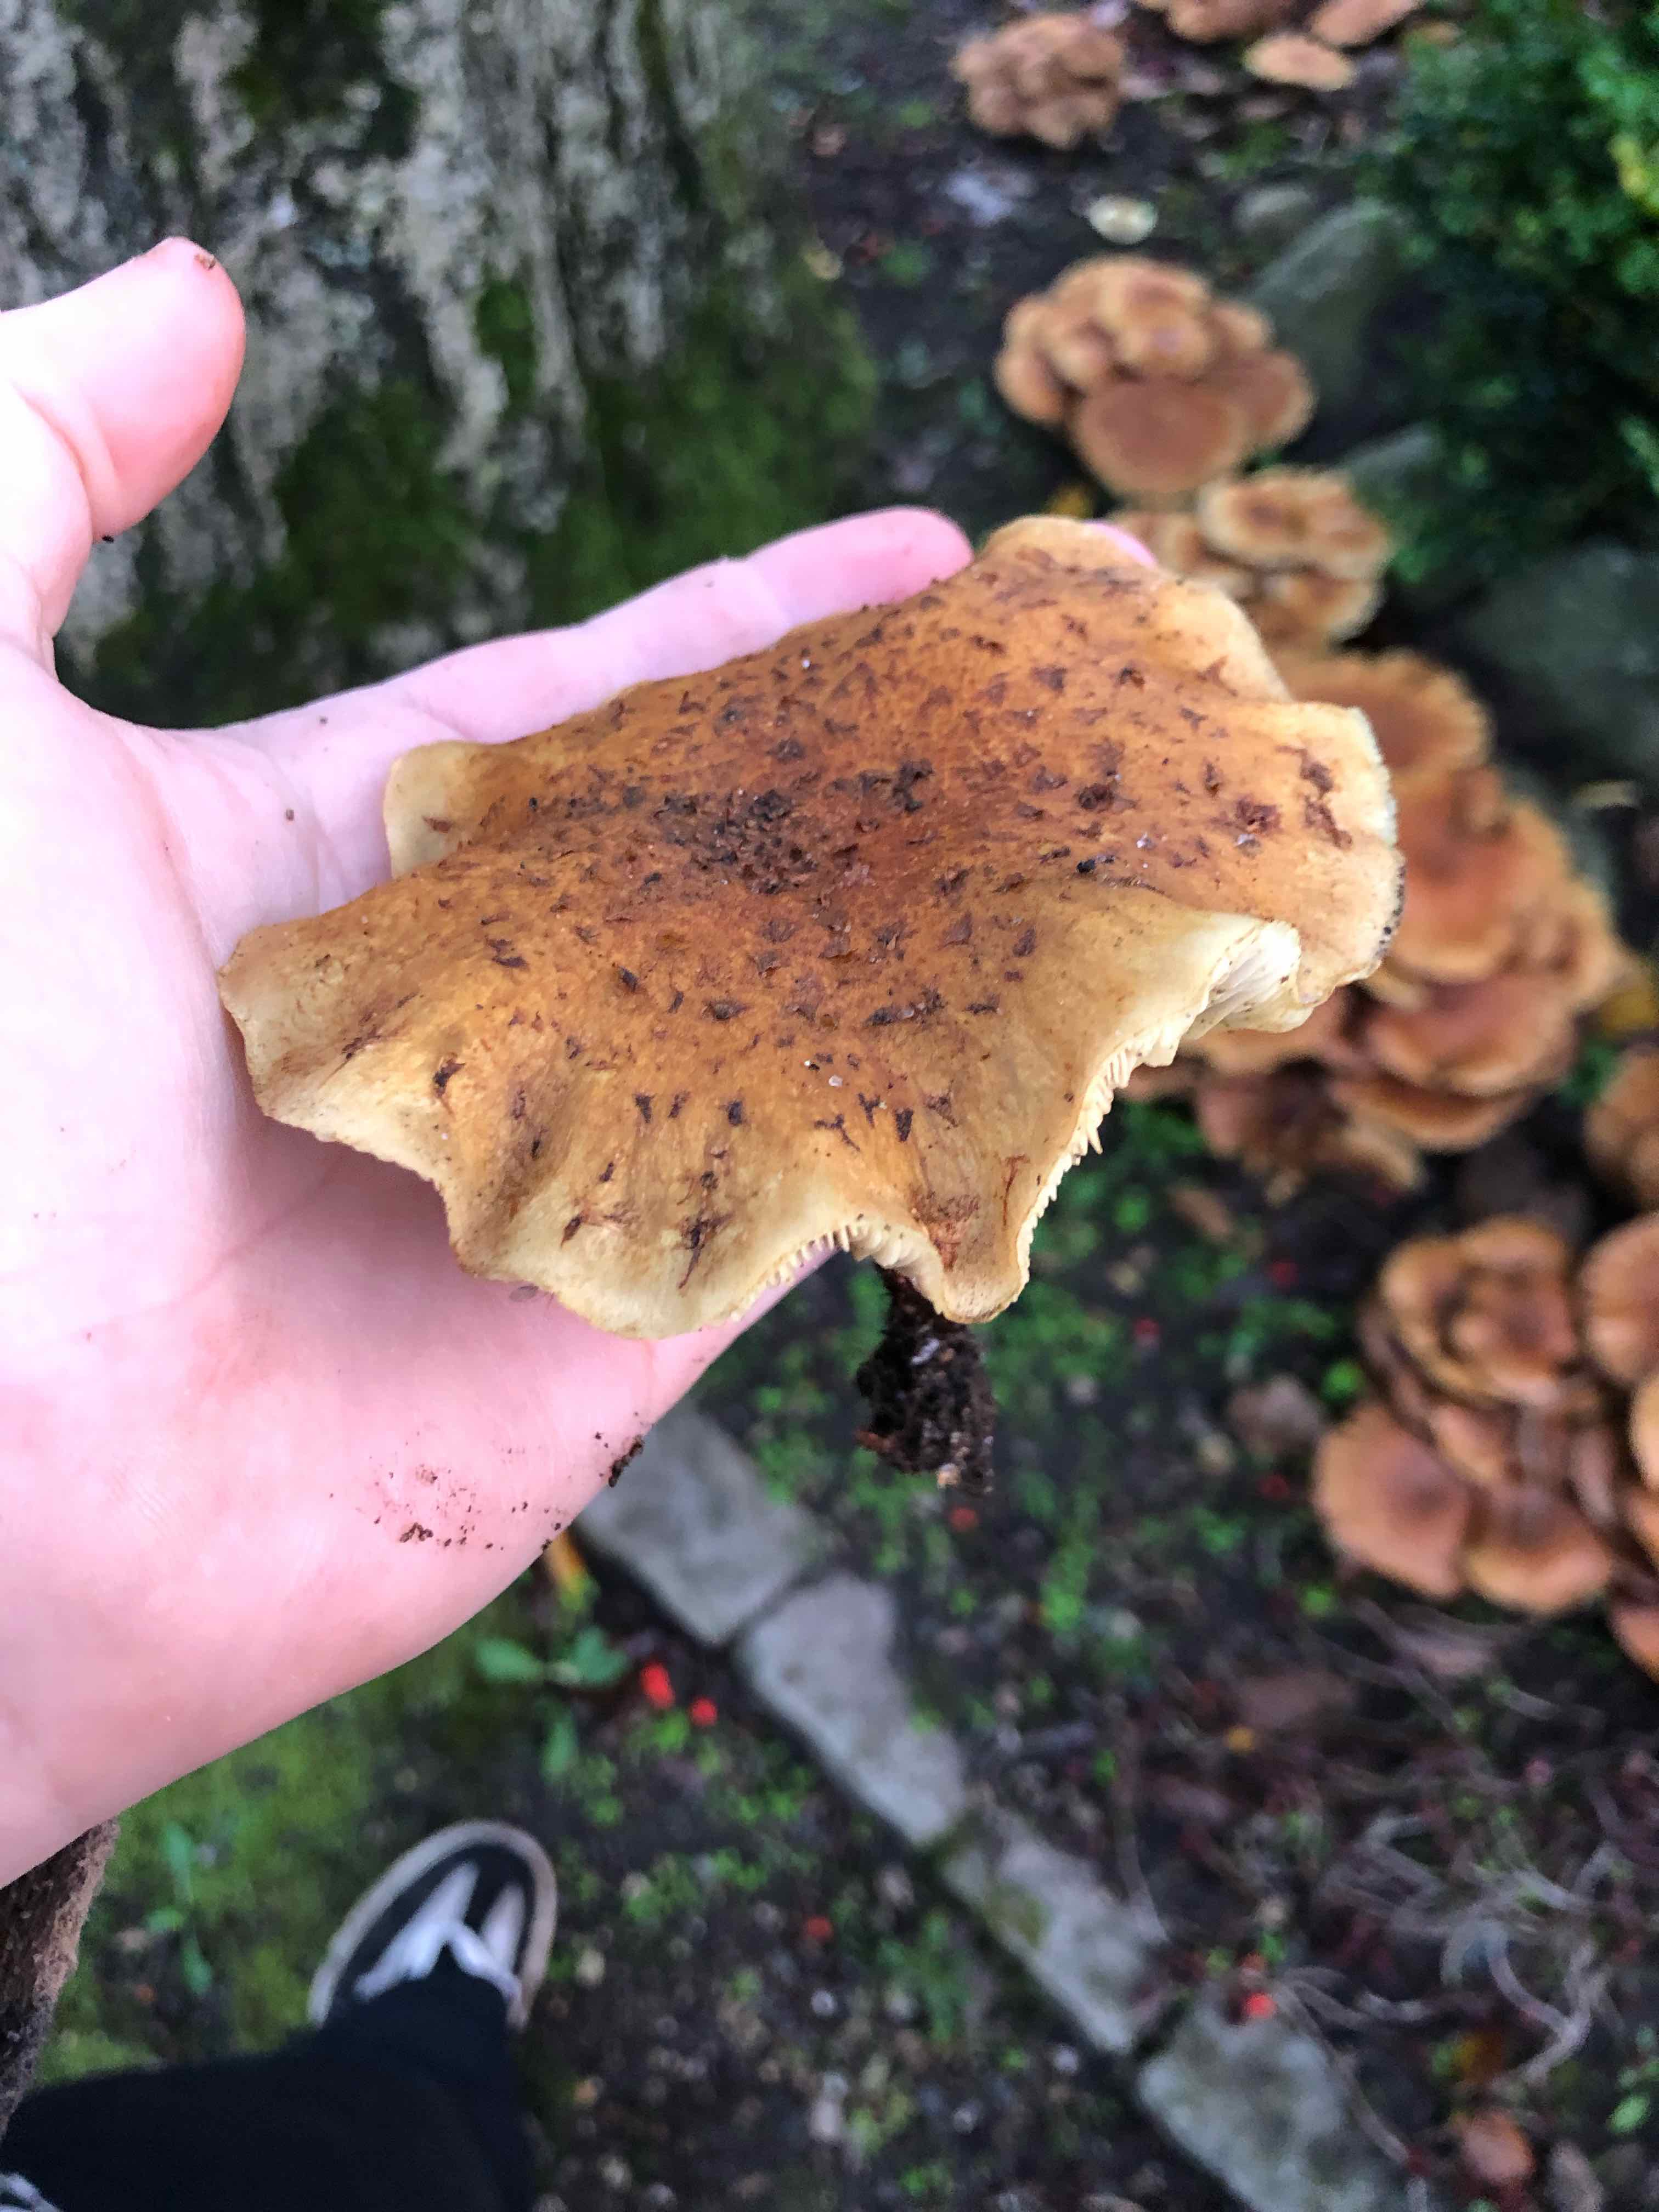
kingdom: Fungi
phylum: Basidiomycota
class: Agaricomycetes
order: Agaricales
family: Strophariaceae
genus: Pholiota
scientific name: Pholiota squarrosa
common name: krumskællet skælhat
